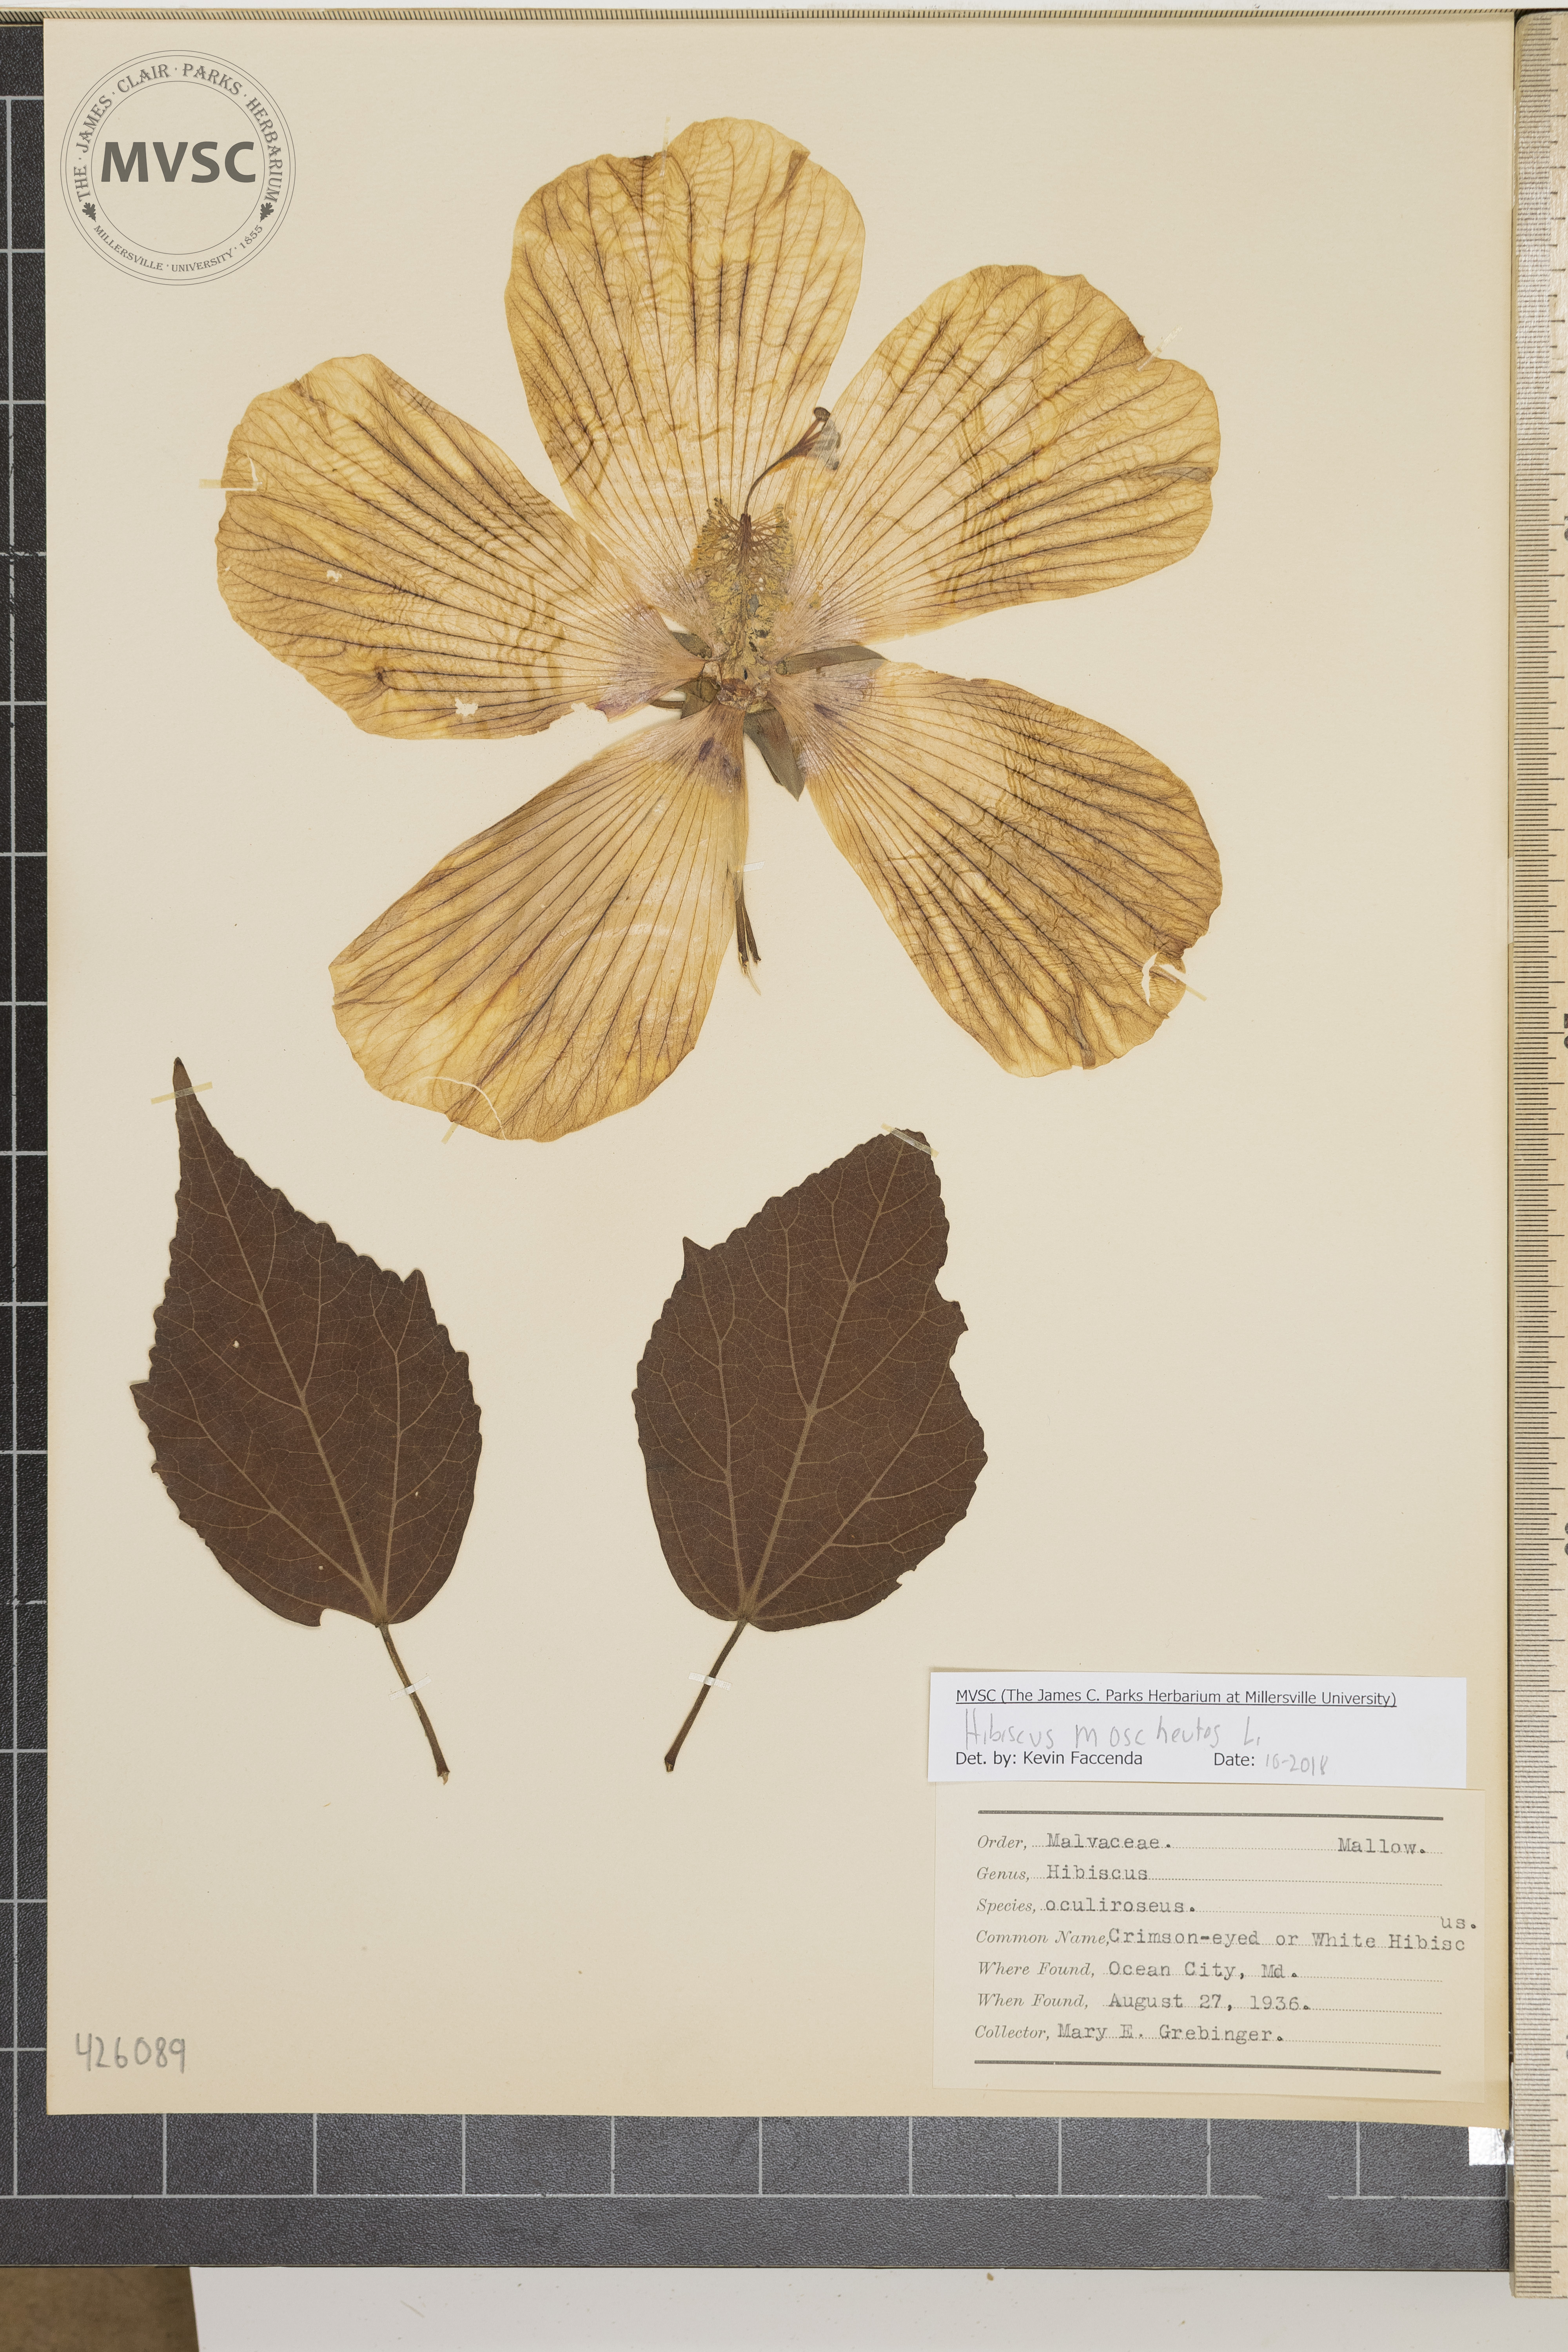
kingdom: Plantae
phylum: Tracheophyta
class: Magnoliopsida
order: Malvales
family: Malvaceae
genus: Hibiscus
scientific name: Hibiscus moscheutos
